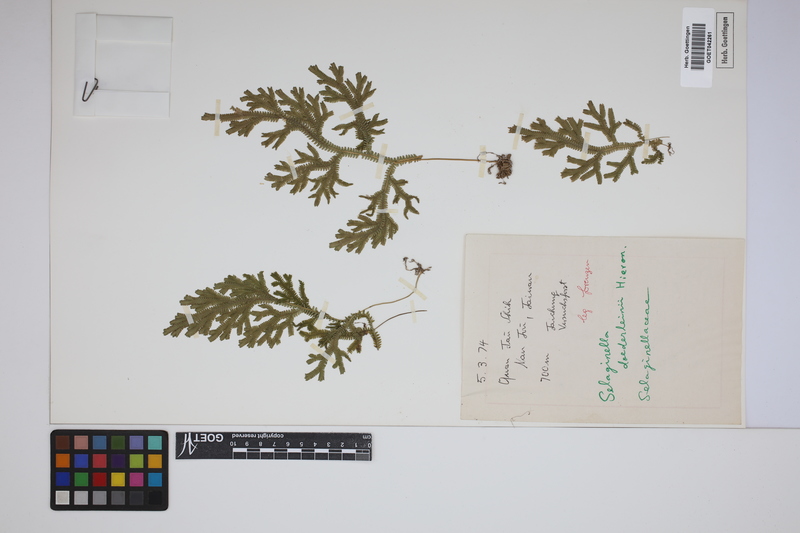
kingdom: Plantae
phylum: Tracheophyta
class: Lycopodiopsida
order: Selaginellales
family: Selaginellaceae
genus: Selaginella
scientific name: Selaginella doederleinii
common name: Greater selaginella
